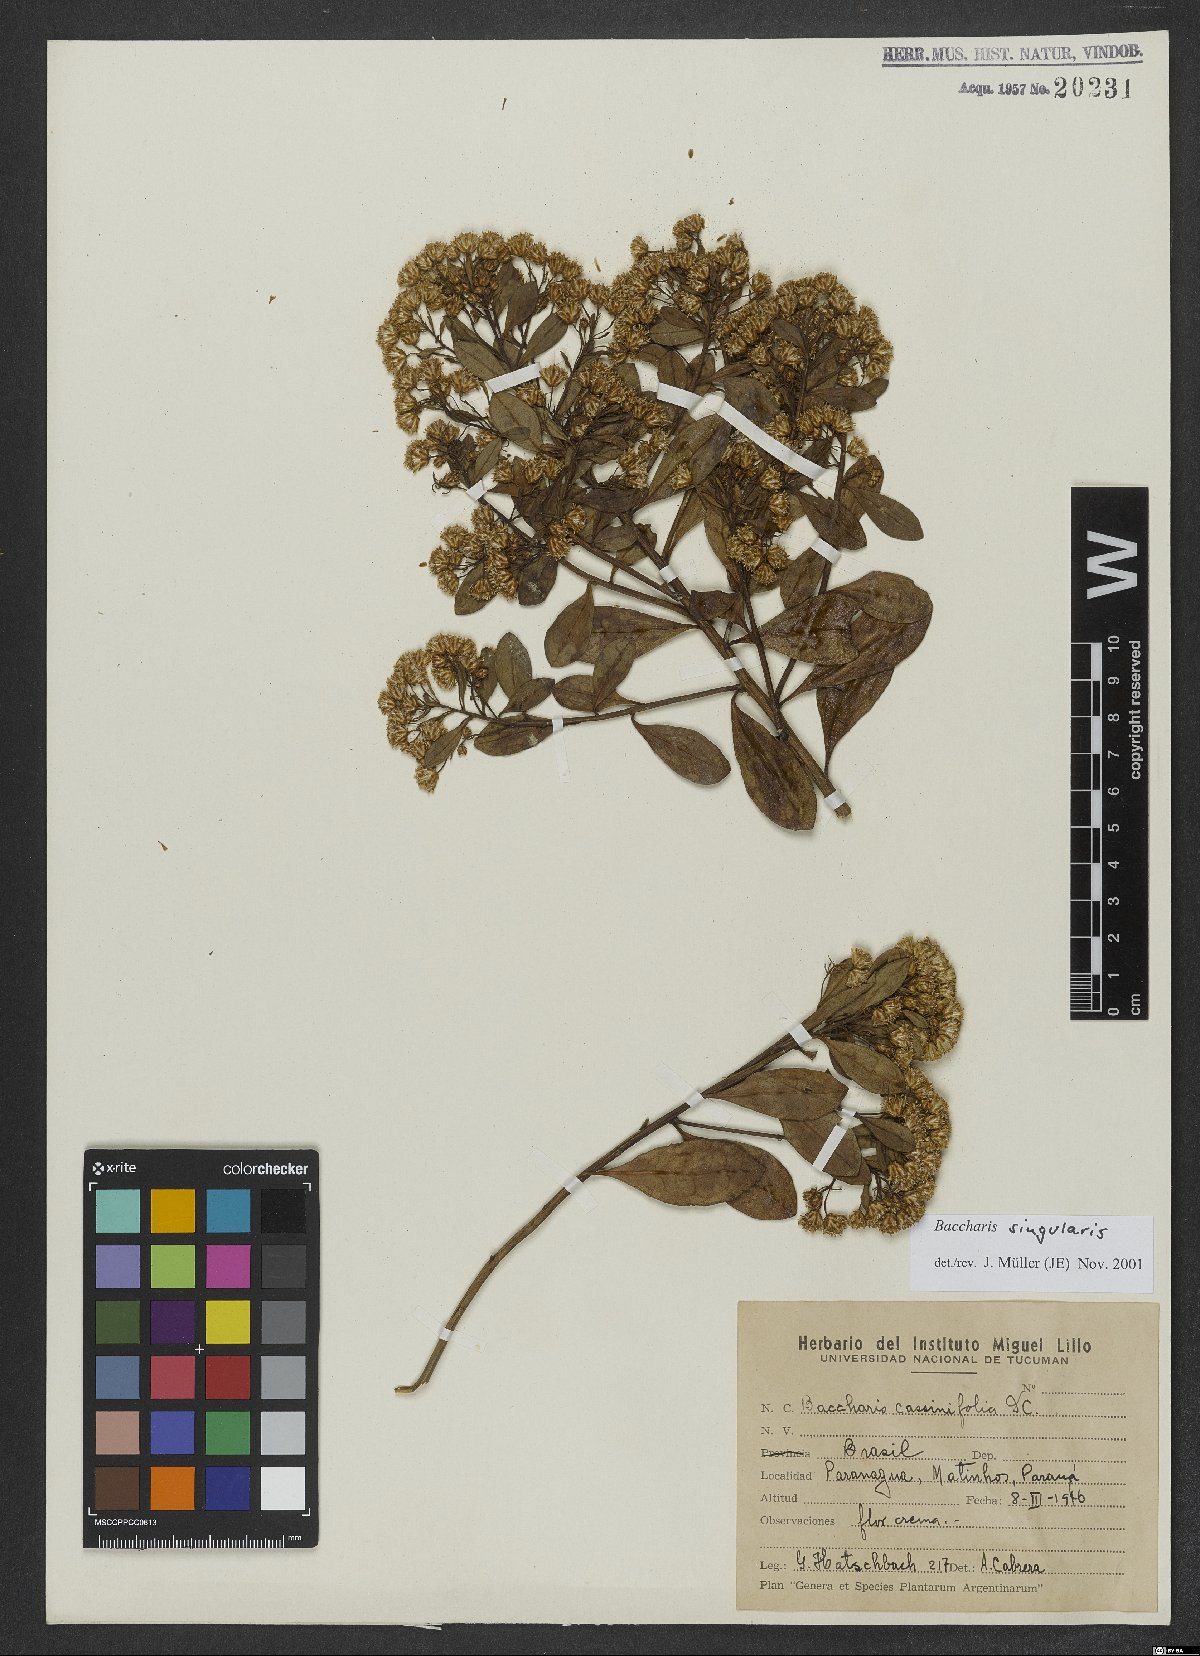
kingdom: Plantae
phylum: Tracheophyta
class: Magnoliopsida
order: Asterales
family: Asteraceae
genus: Baccharis
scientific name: Baccharis singularis
